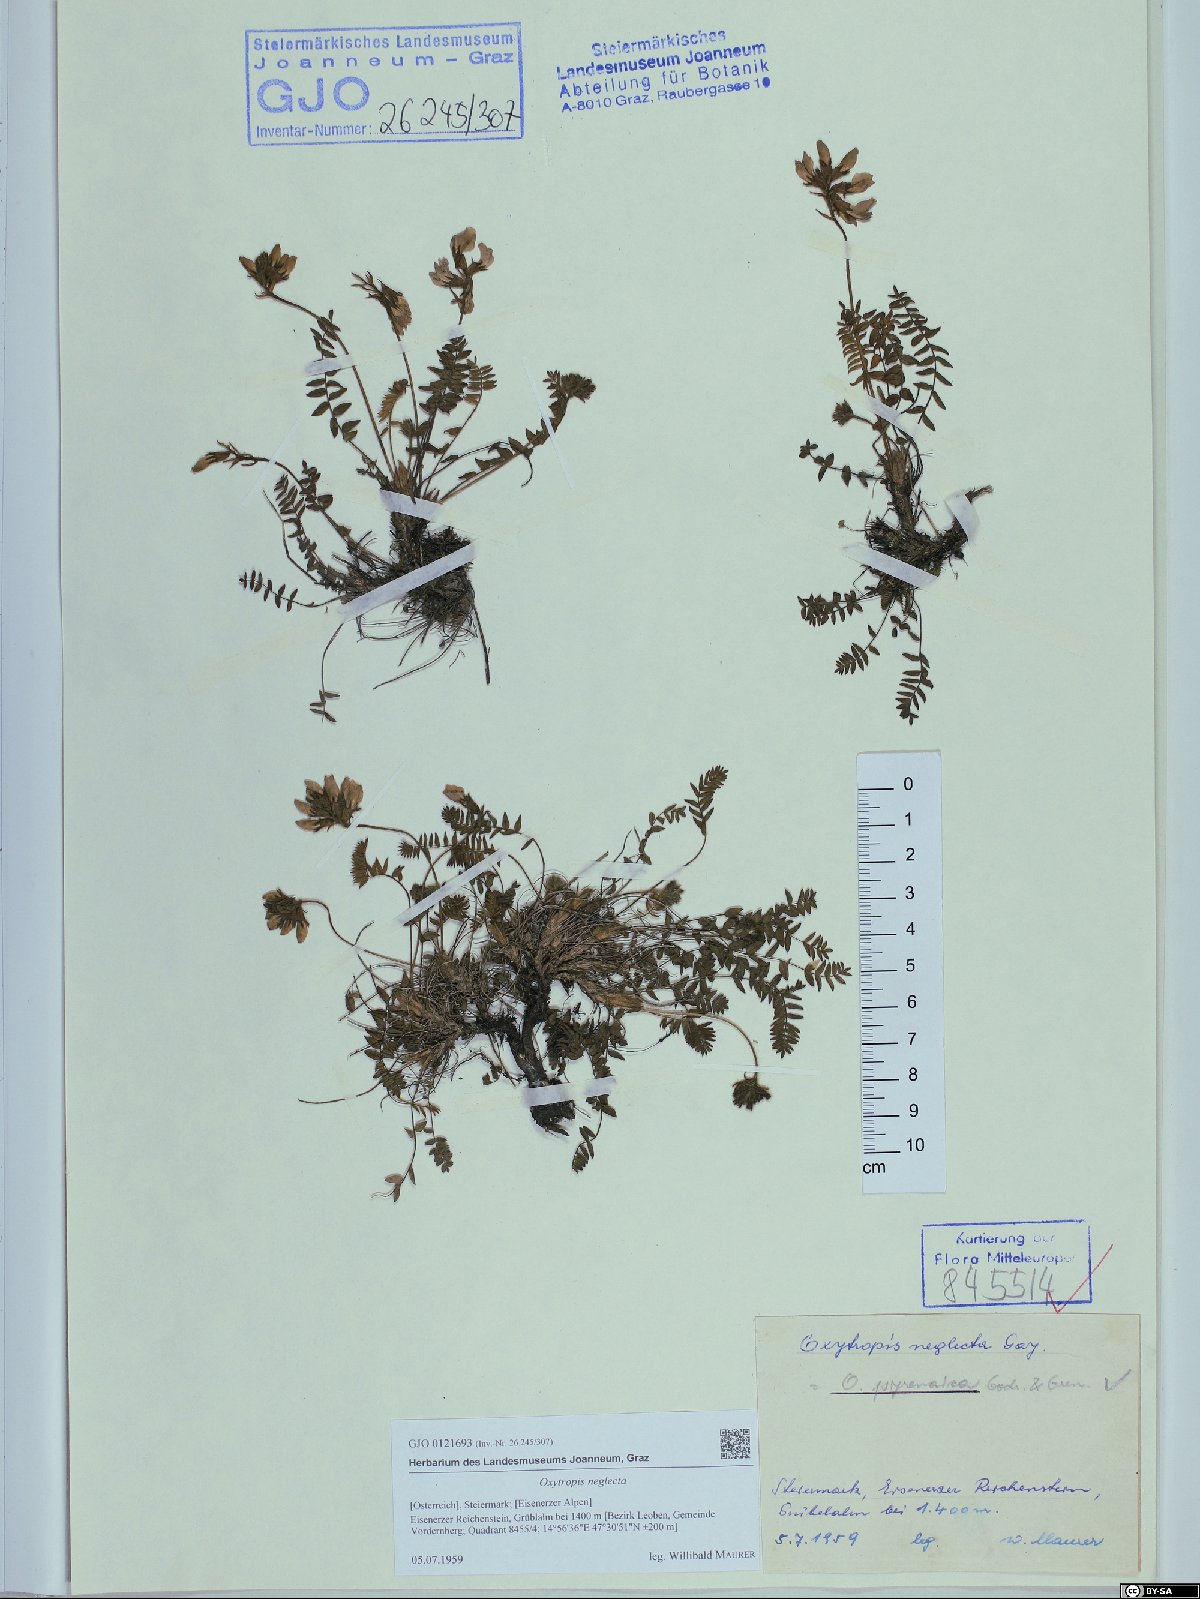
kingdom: Plantae
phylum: Tracheophyta
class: Magnoliopsida
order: Fabales
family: Fabaceae
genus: Oxytropis
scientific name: Oxytropis neglecta
